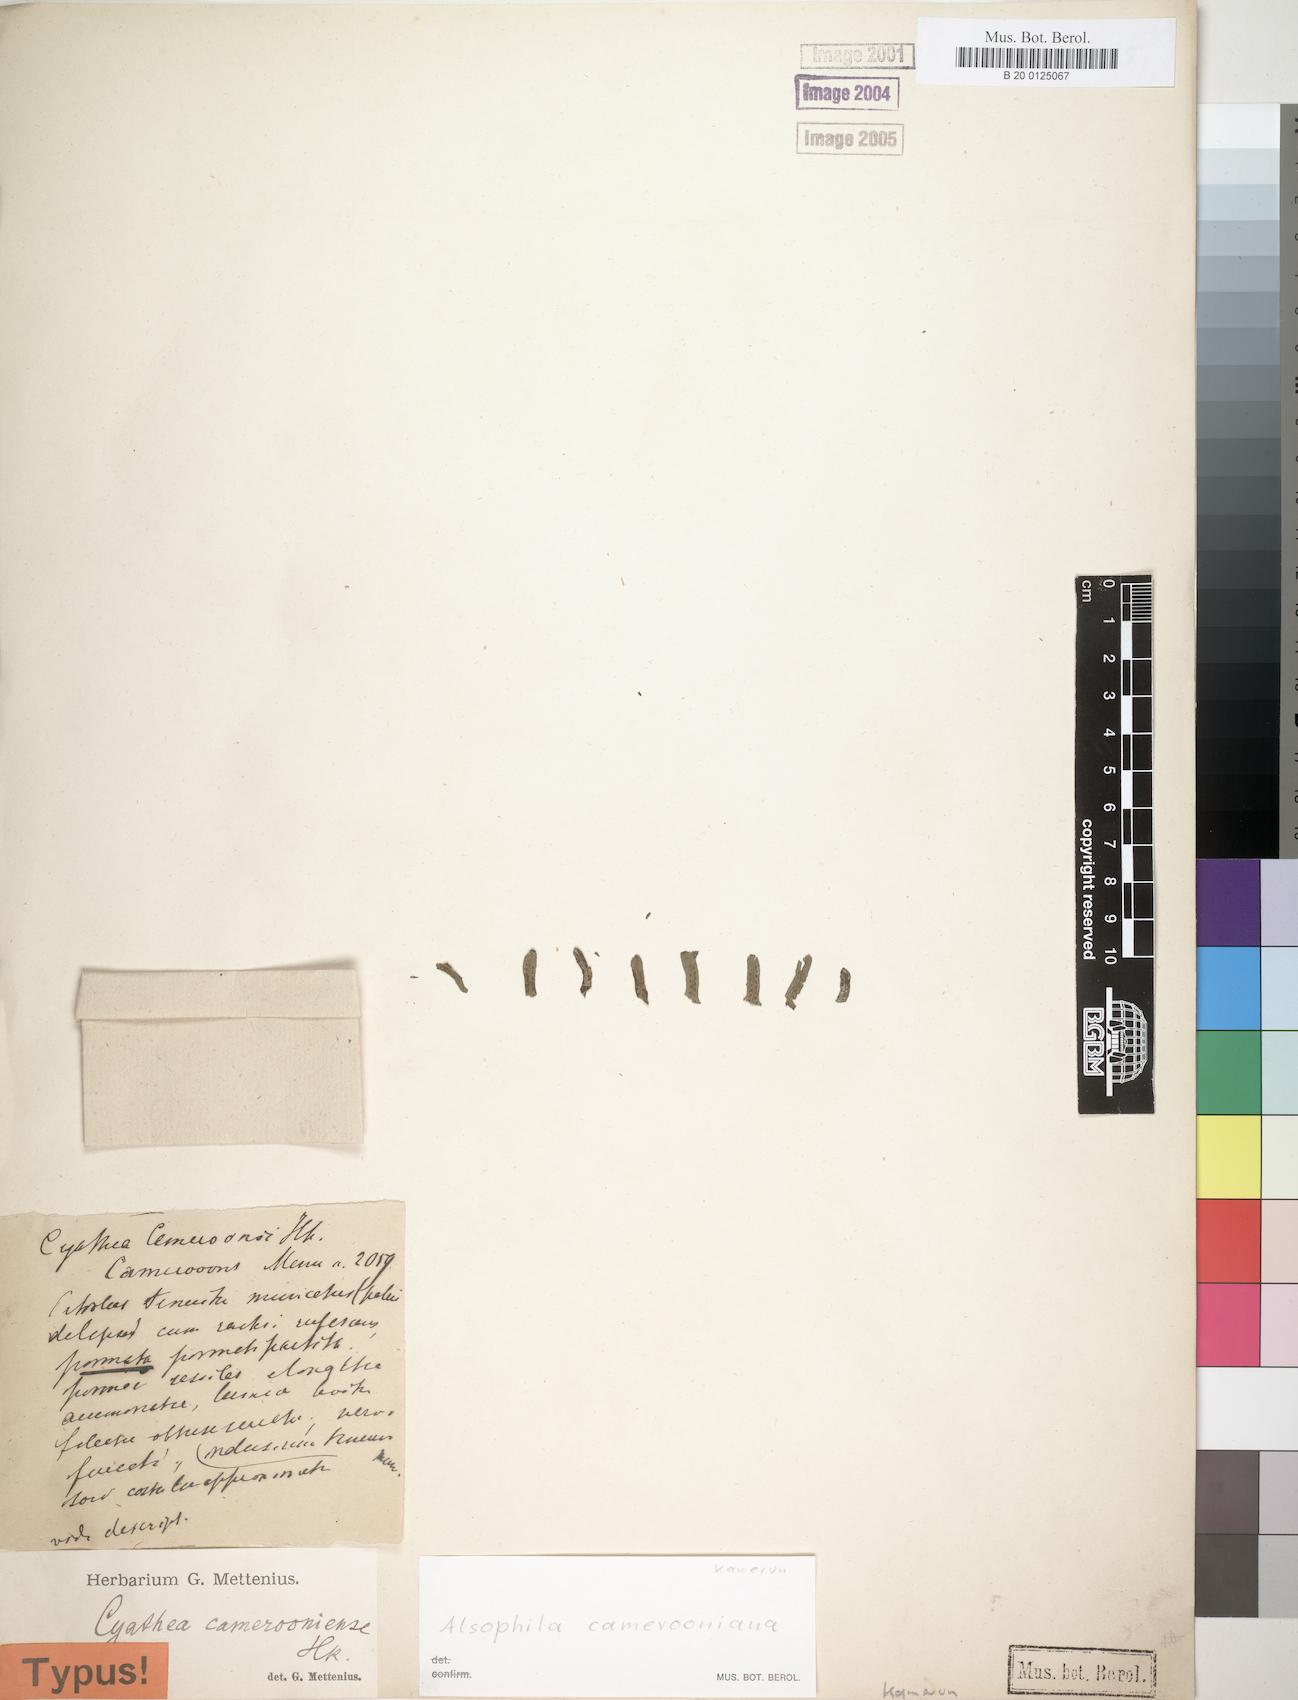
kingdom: Plantae
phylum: Tracheophyta
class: Polypodiopsida
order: Cyatheales
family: Cyatheaceae
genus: Alsophila
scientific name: Alsophila camerooniana
